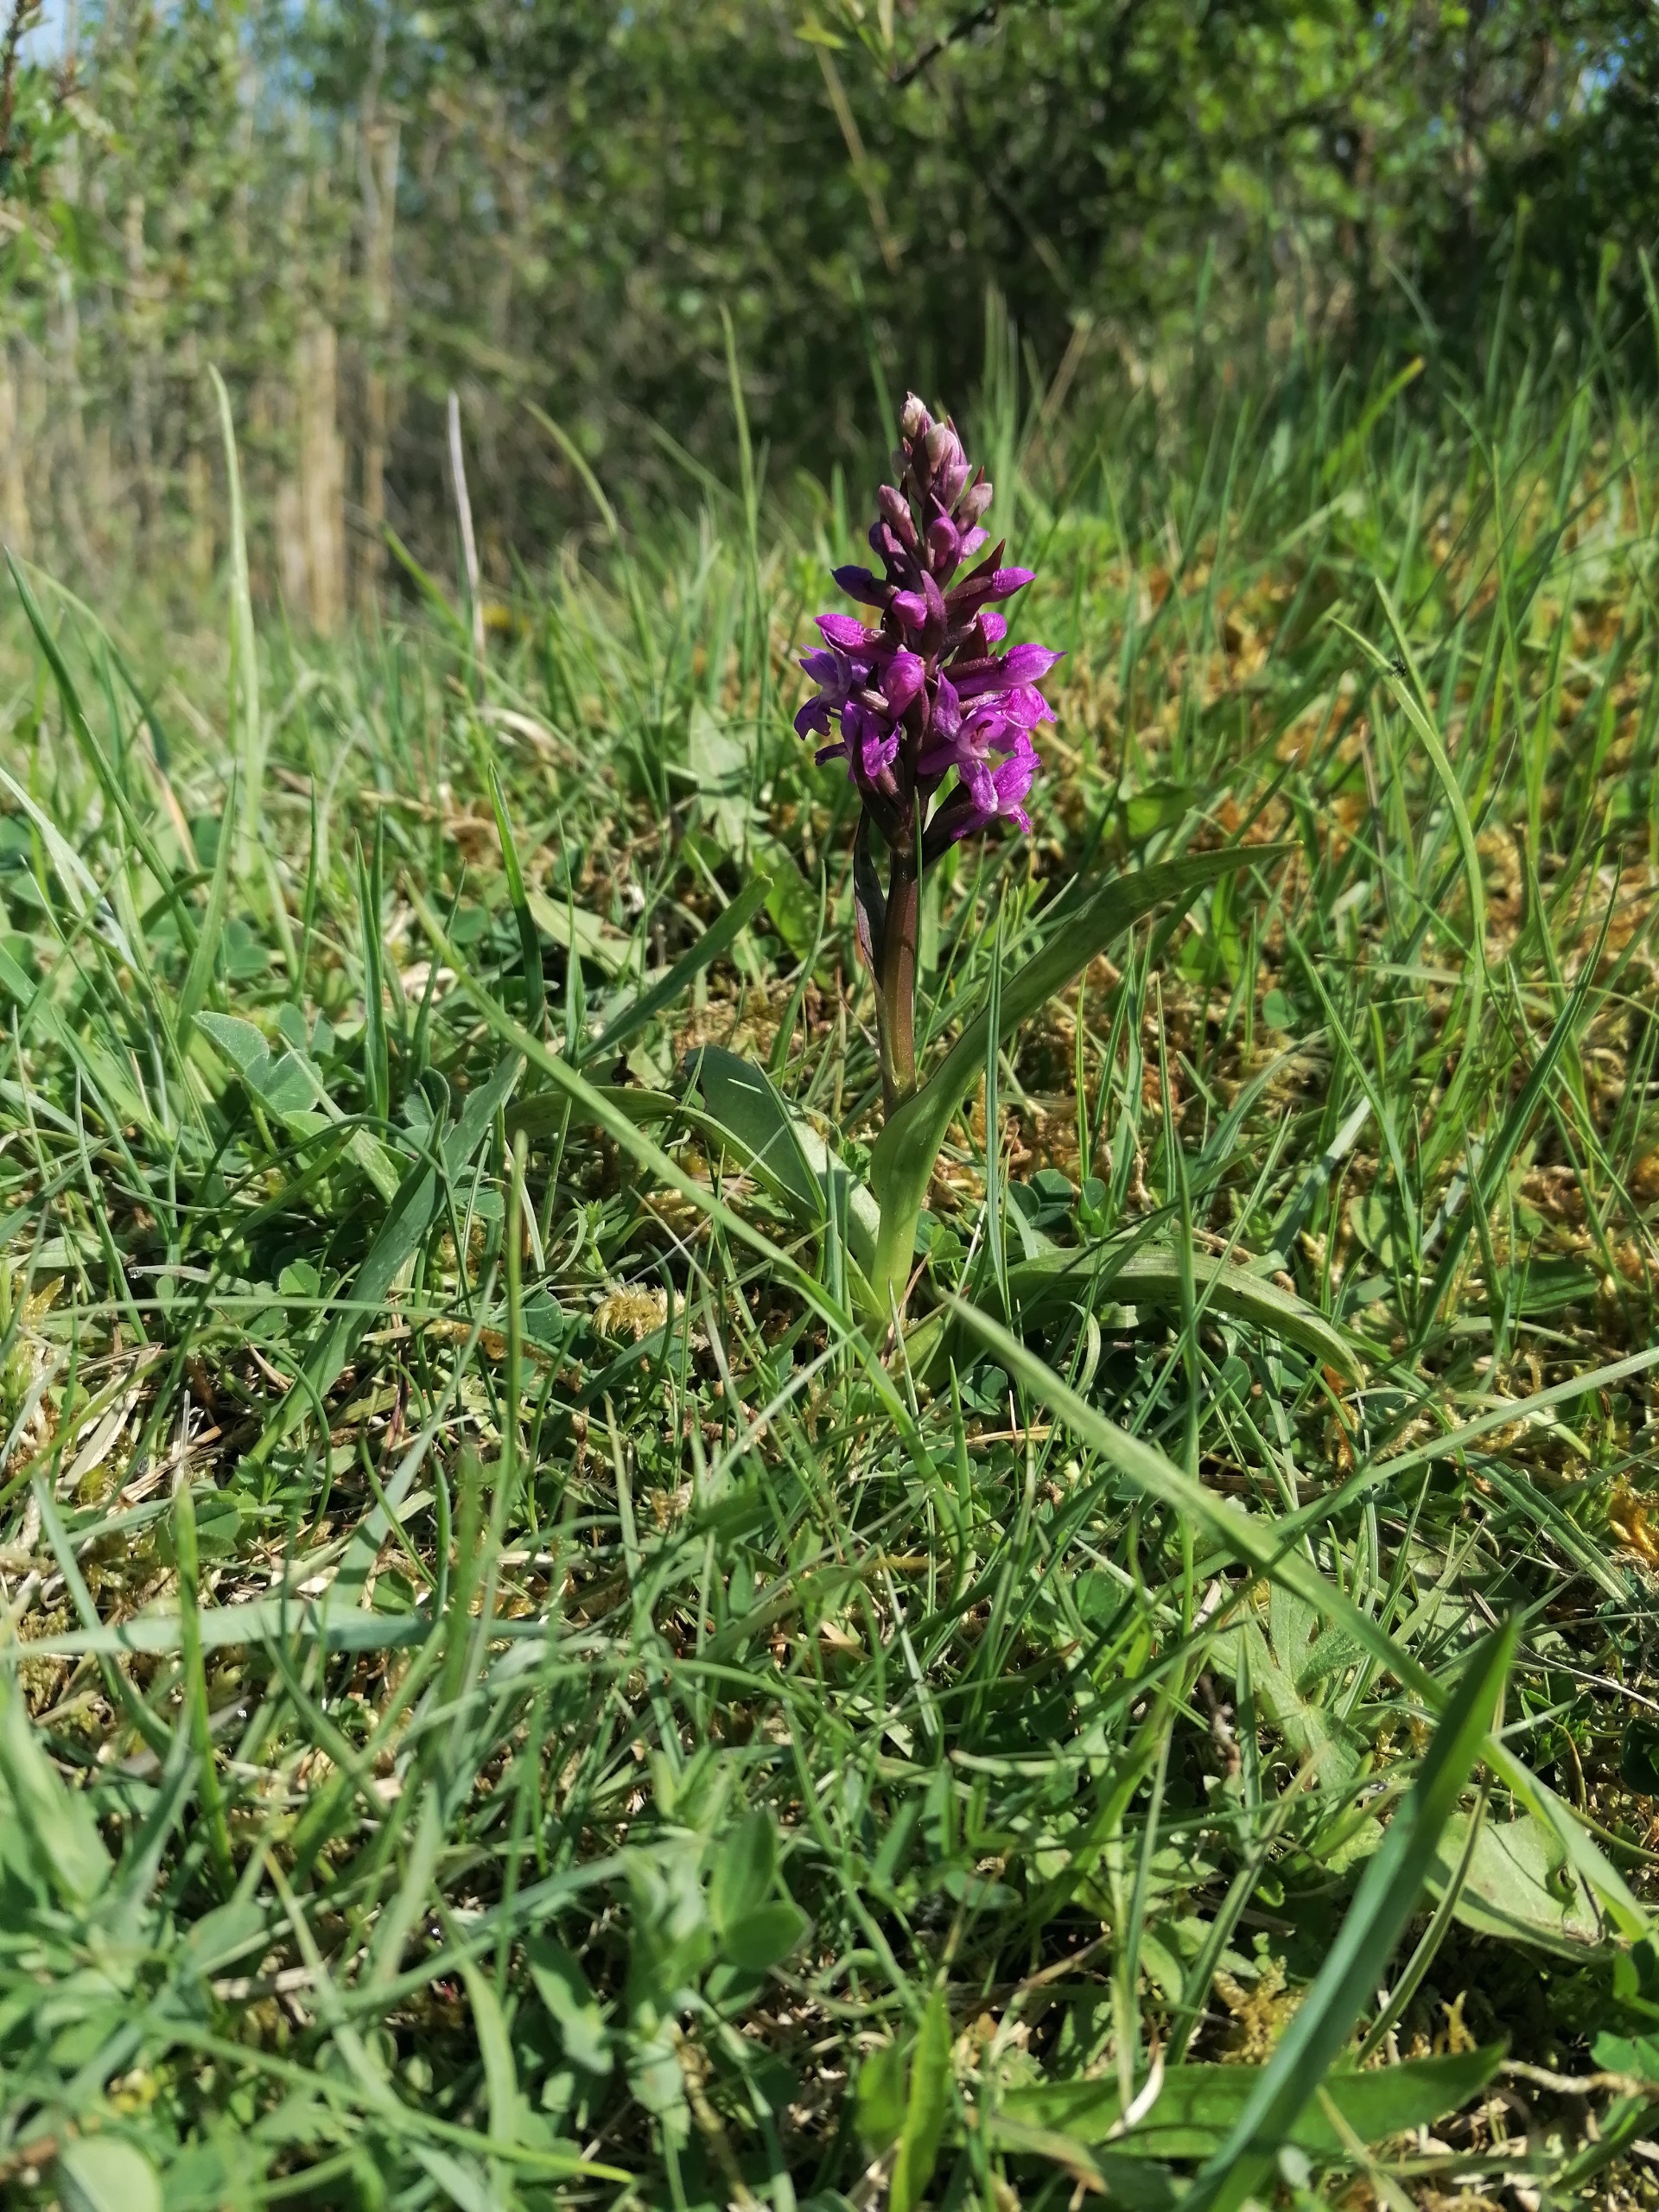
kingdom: Plantae
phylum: Tracheophyta
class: Liliopsida
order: Asparagales
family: Orchidaceae
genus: Dactylorhiza
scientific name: Dactylorhiza majalis
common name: Maj-gøgeurt
